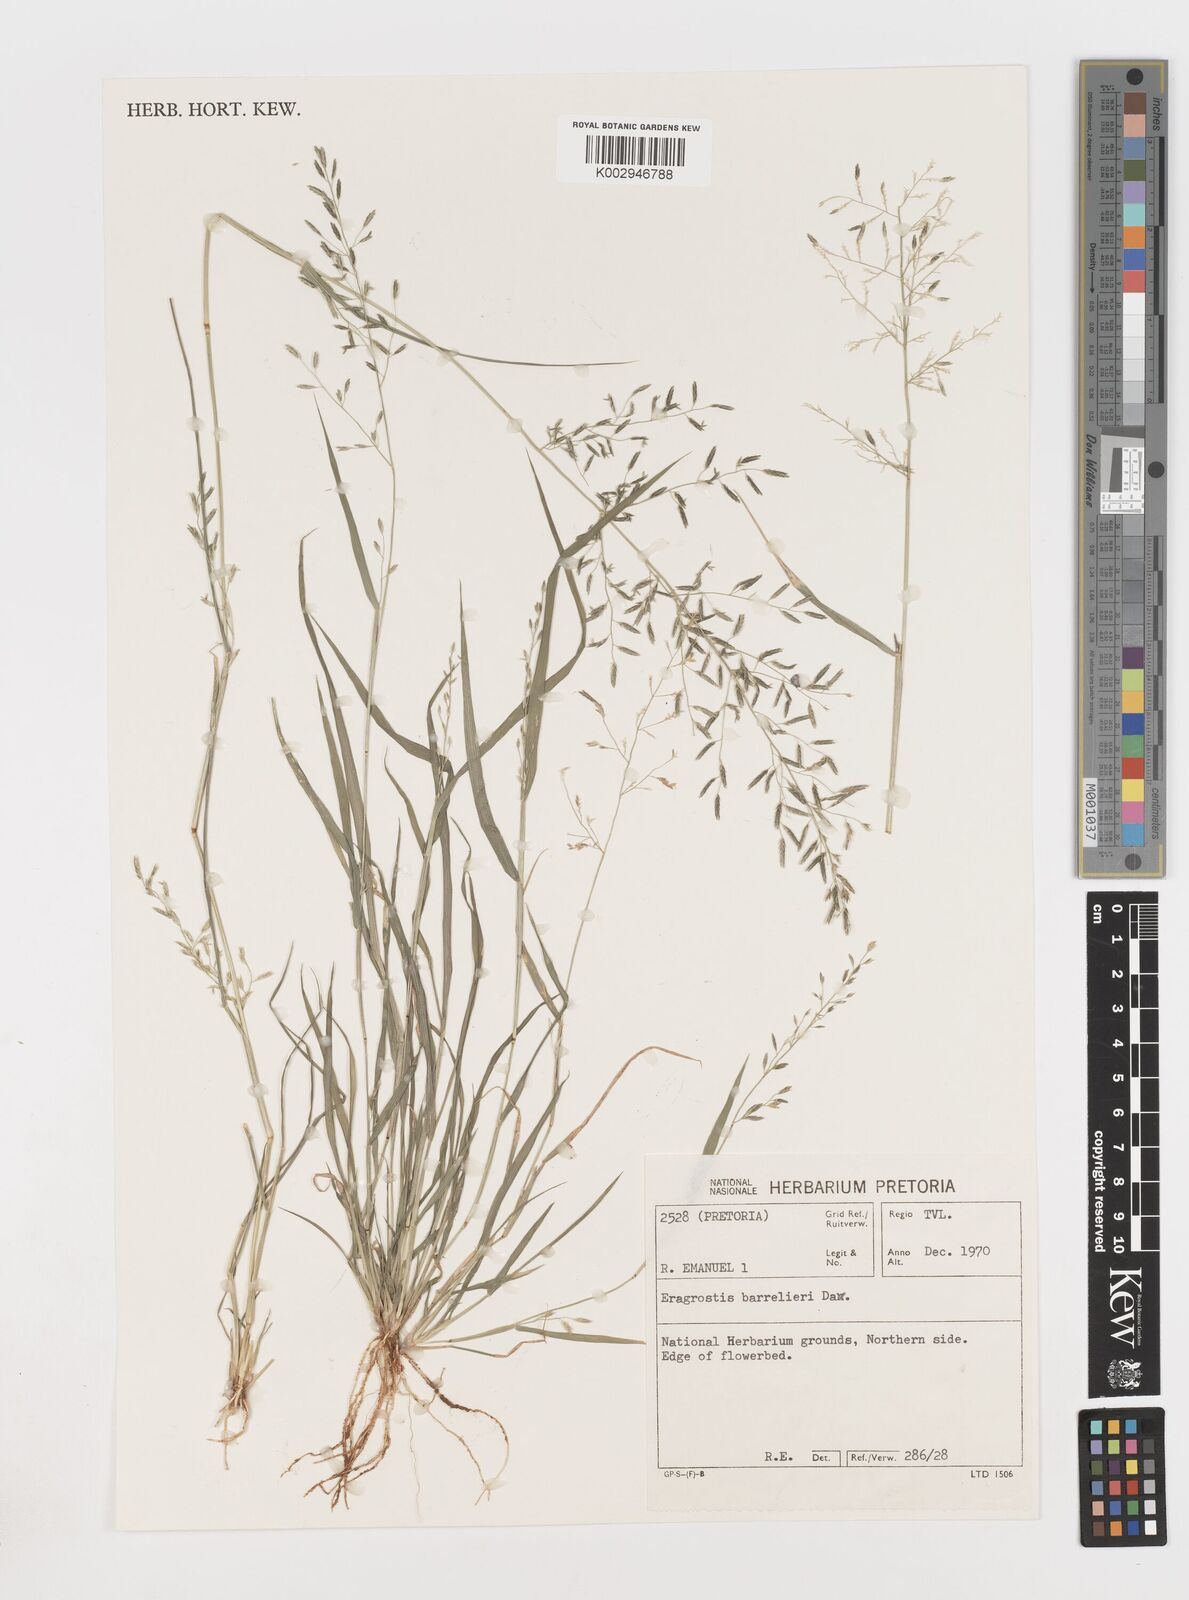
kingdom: Plantae
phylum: Tracheophyta
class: Liliopsida
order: Poales
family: Poaceae
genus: Eragrostis
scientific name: Eragrostis barrelieri
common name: Mediterranean lovegrass
